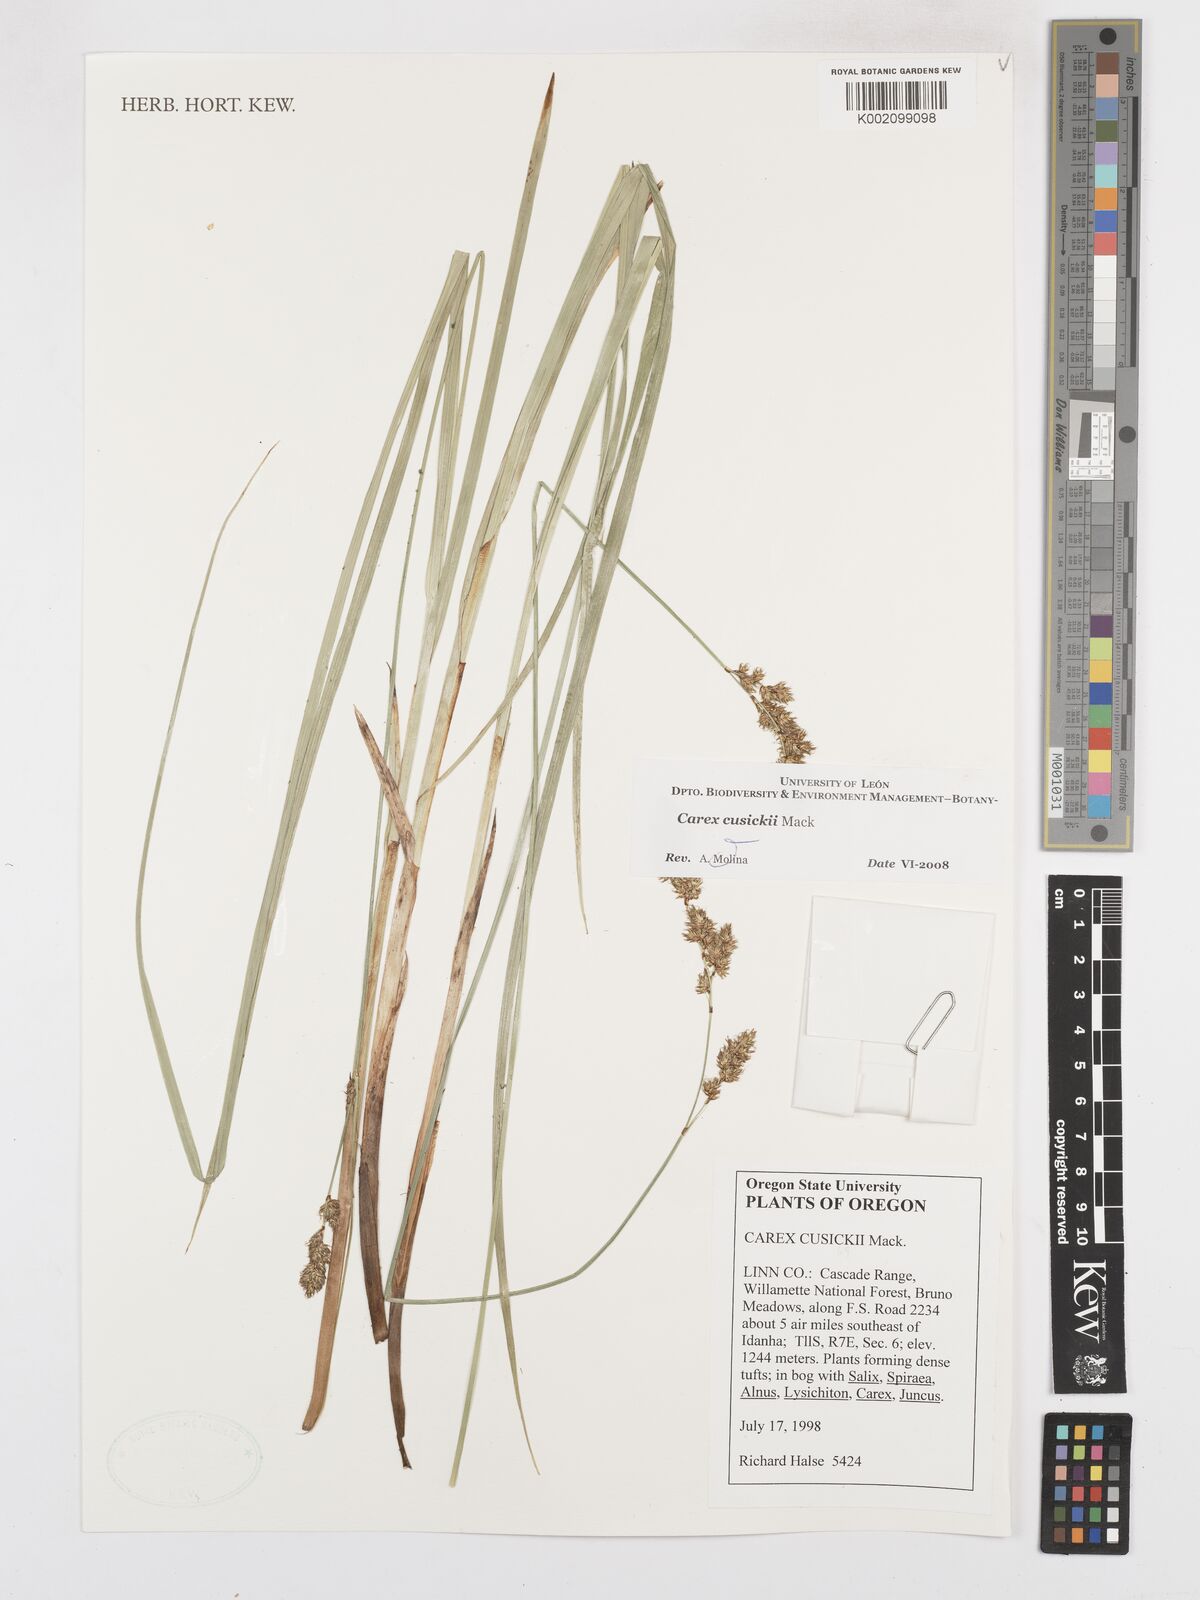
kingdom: Plantae
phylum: Tracheophyta
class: Liliopsida
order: Poales
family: Cyperaceae
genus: Carex
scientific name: Carex cusickii
